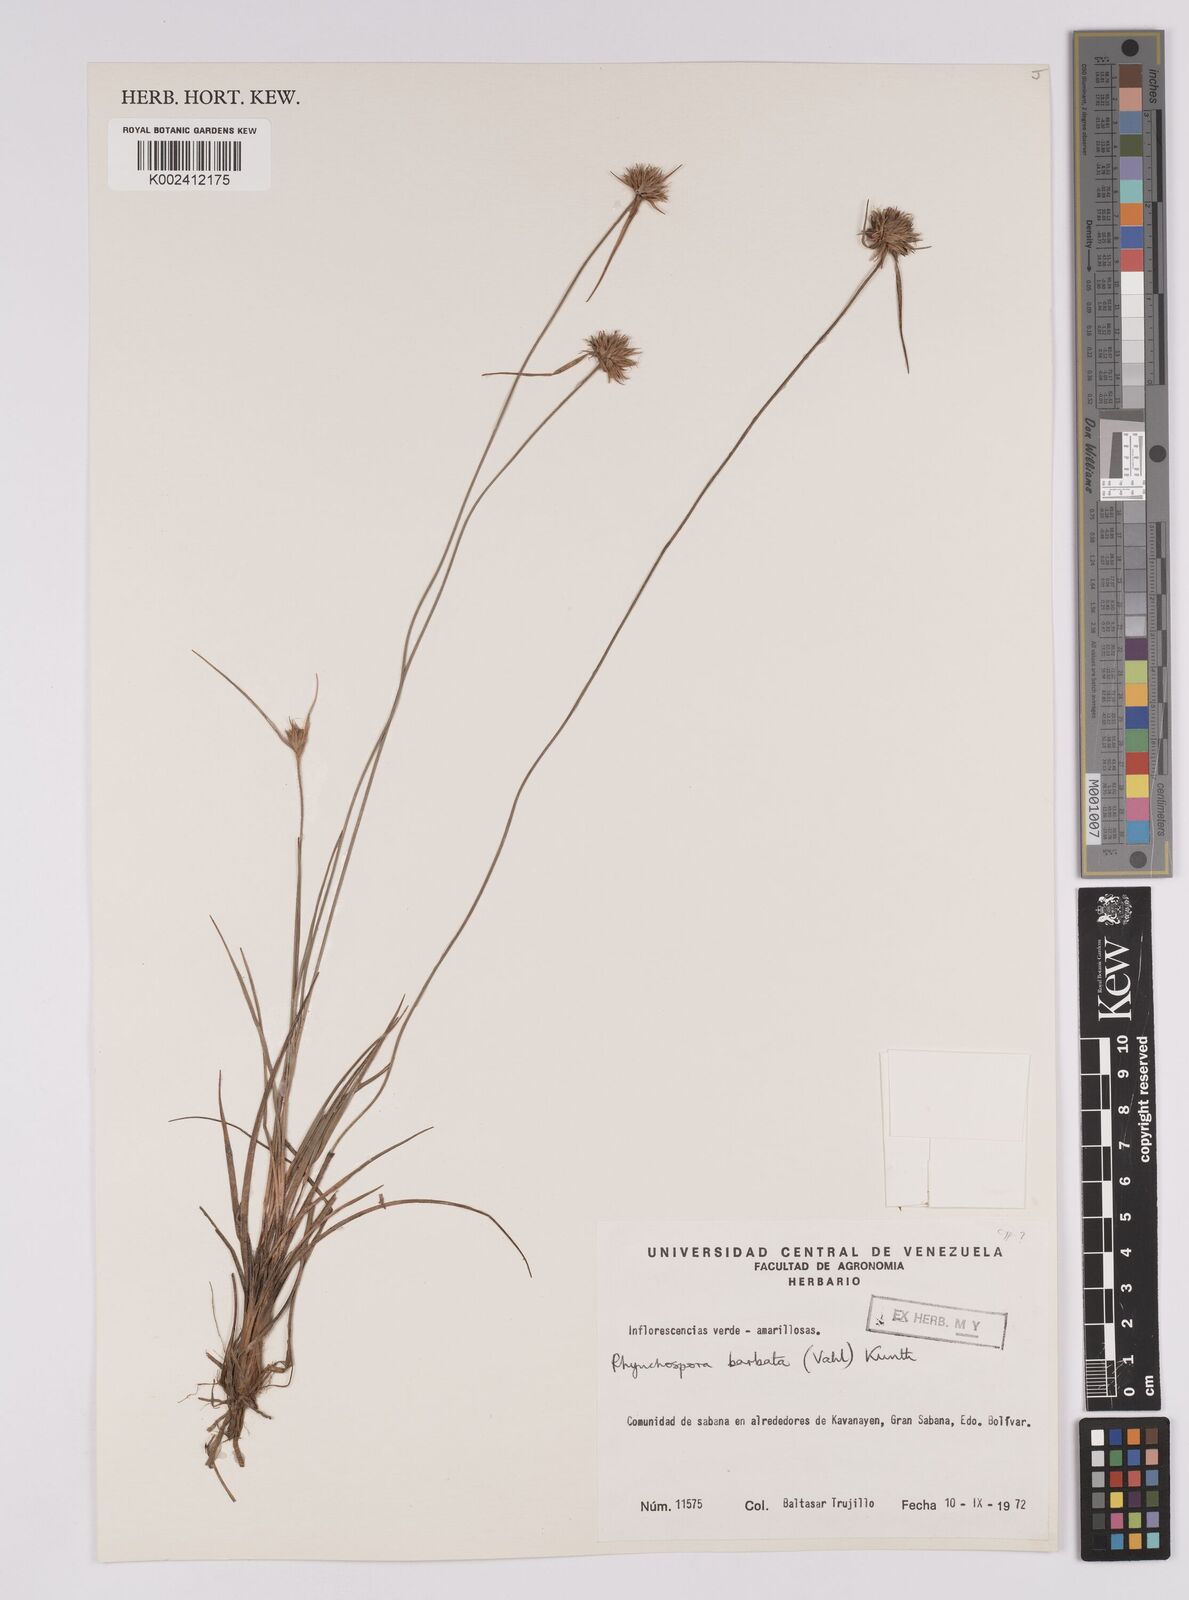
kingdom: Plantae
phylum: Tracheophyta
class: Liliopsida
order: Poales
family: Cyperaceae
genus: Rhynchospora
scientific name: Rhynchospora barbata
